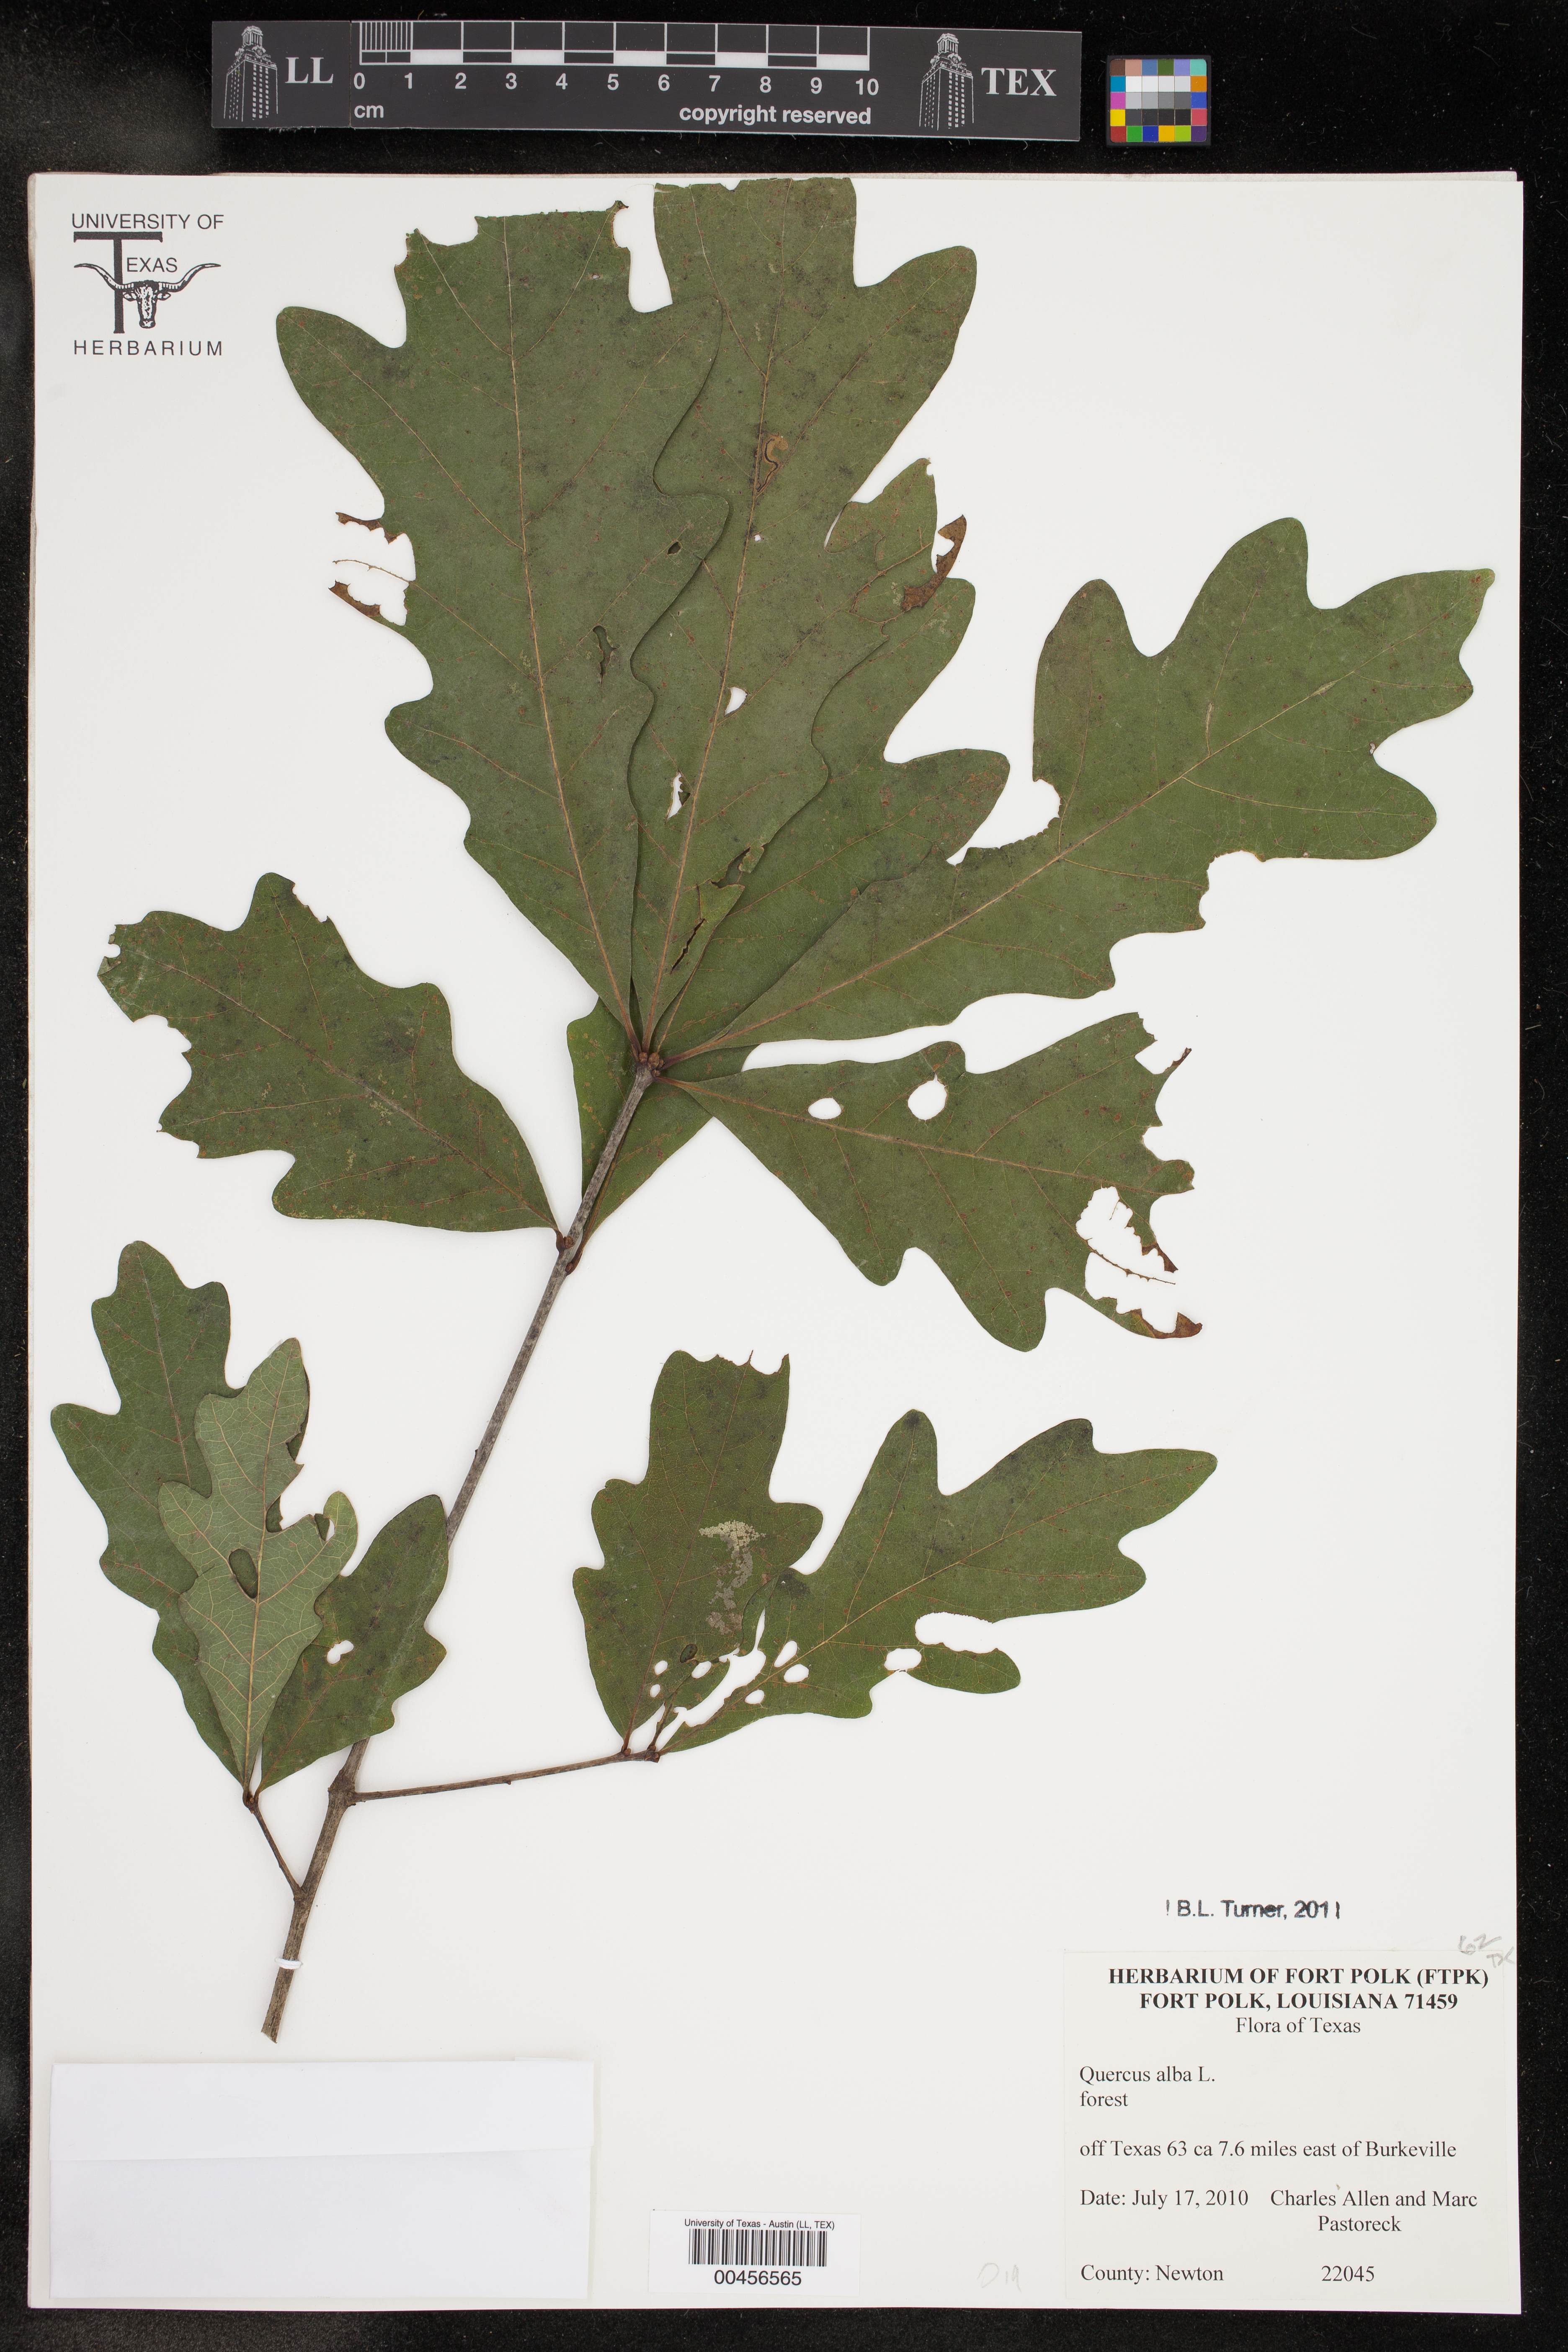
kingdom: Plantae
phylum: Tracheophyta
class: Magnoliopsida
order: Fagales
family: Fagaceae
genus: Quercus
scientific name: Quercus alba
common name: White oak
